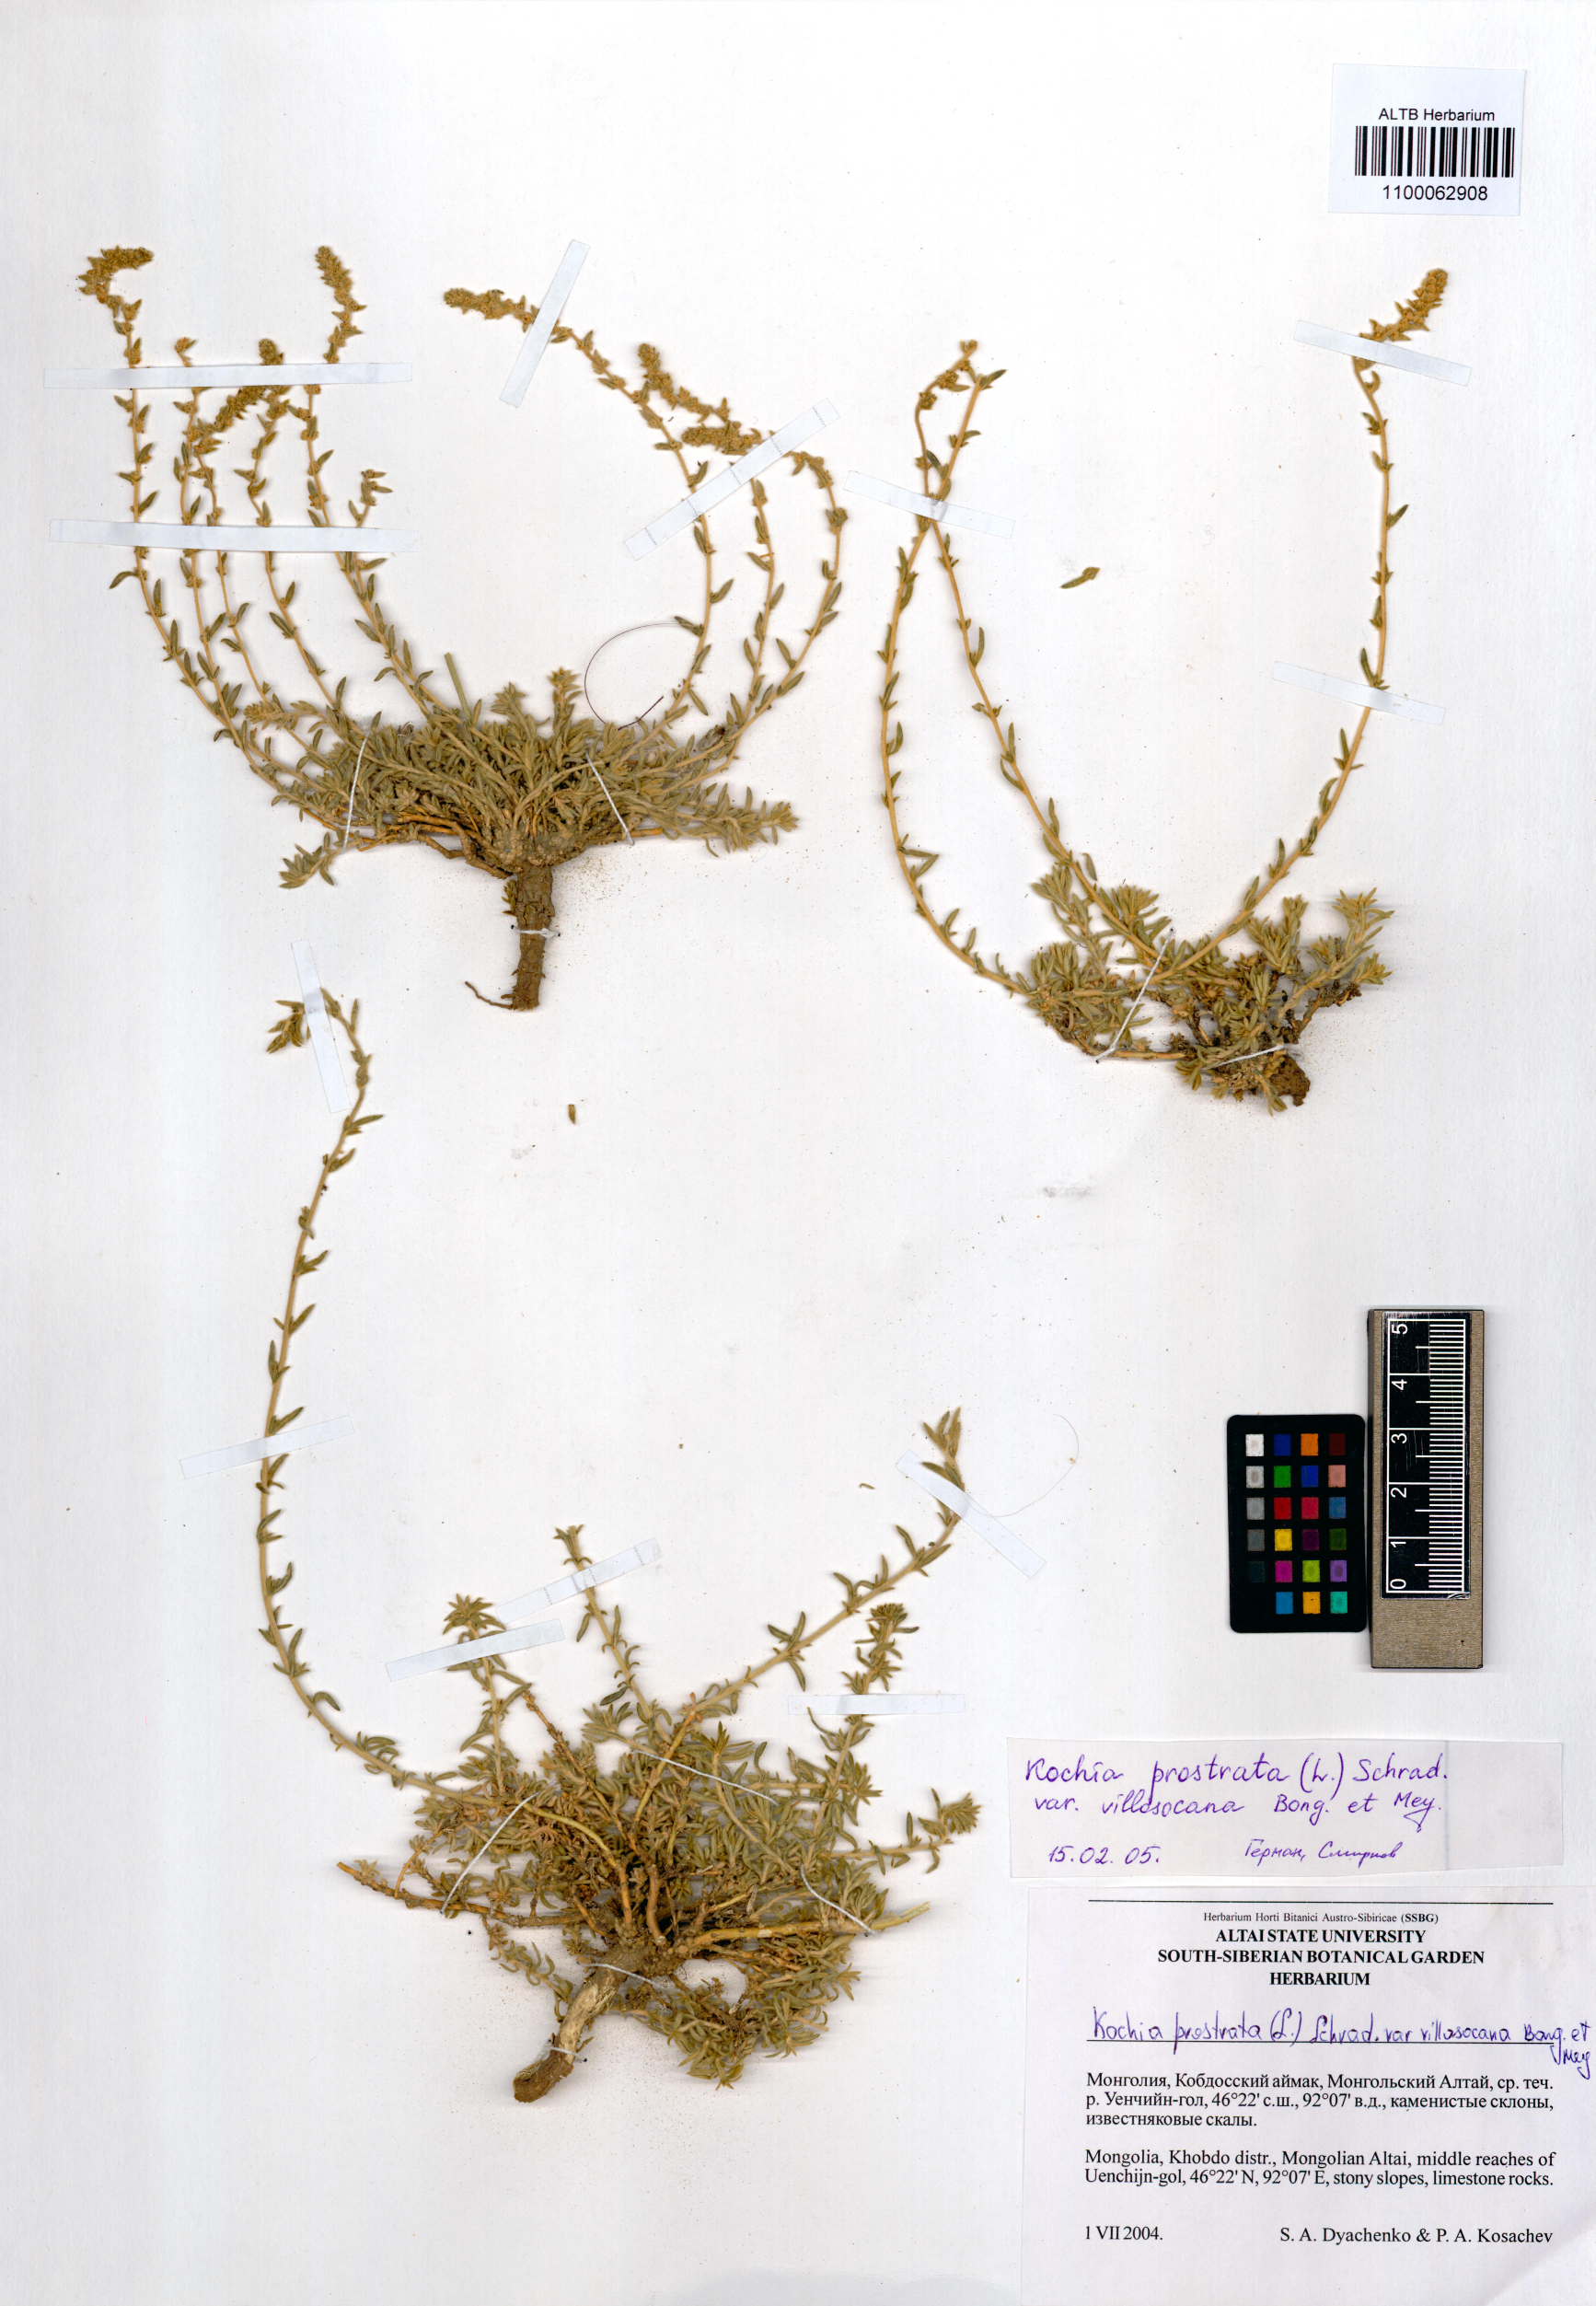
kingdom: Plantae
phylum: Tracheophyta
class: Magnoliopsida
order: Caryophyllales
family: Amaranthaceae
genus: Bassia
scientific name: Bassia villosissima
